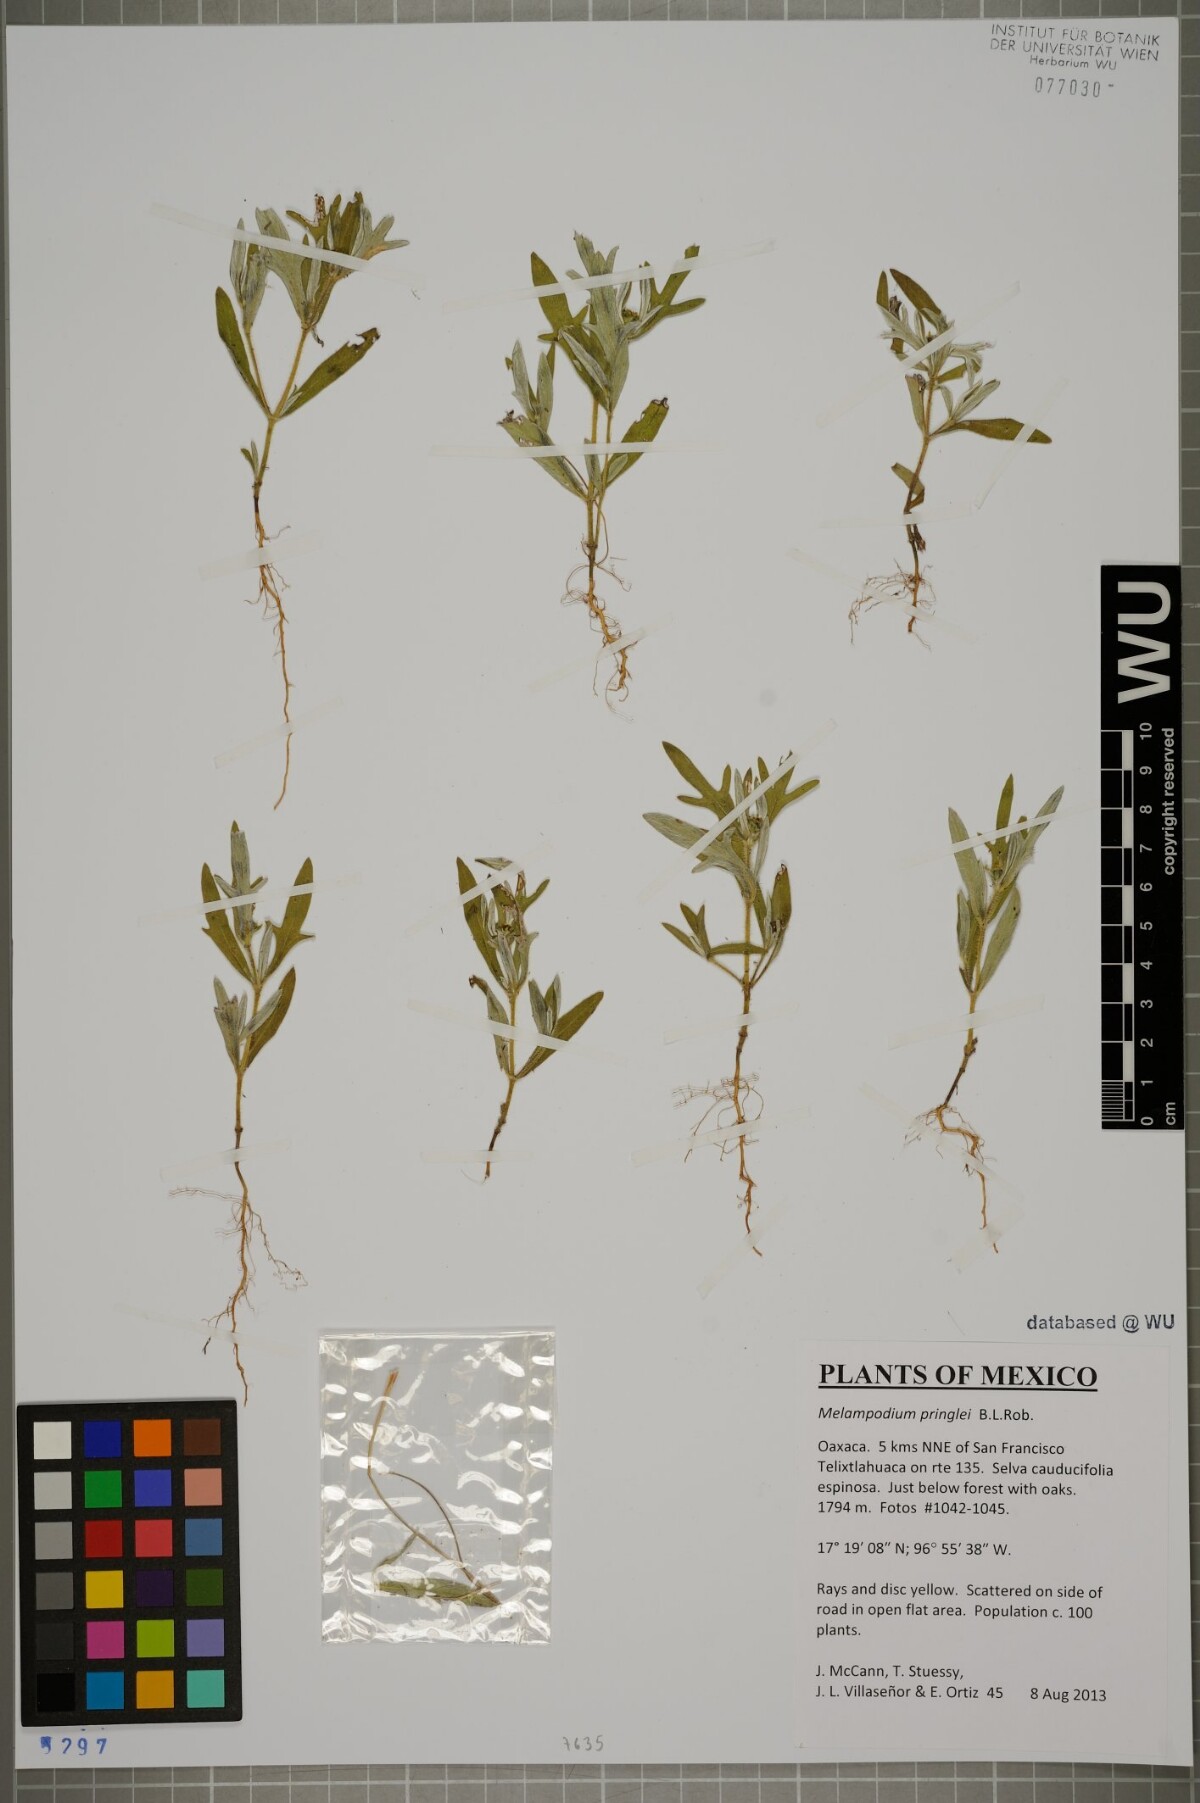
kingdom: Plantae
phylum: Tracheophyta
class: Magnoliopsida
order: Asterales
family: Asteraceae
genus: Melampodium
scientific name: Melampodium pringlei
